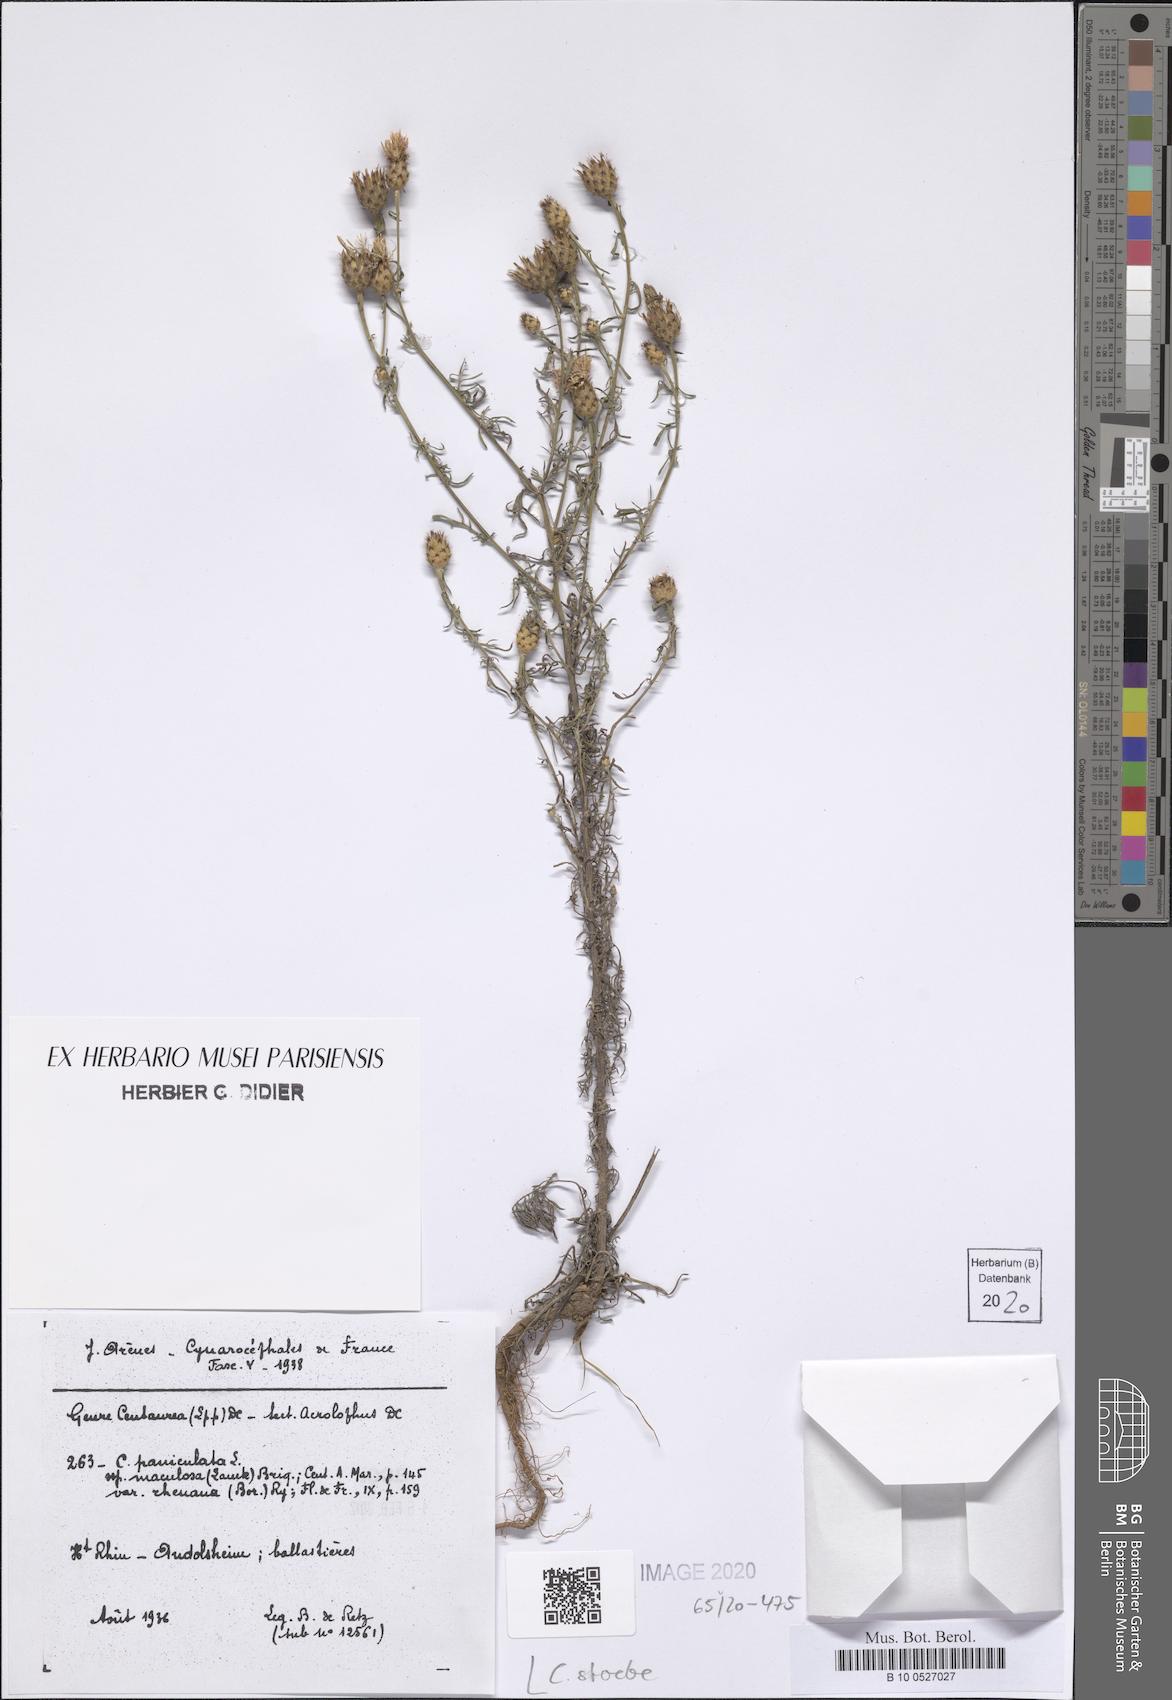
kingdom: Plantae
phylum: Tracheophyta
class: Magnoliopsida
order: Asterales
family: Asteraceae
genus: Centaurea
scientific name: Centaurea stoebe
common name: Spotted knapweed
